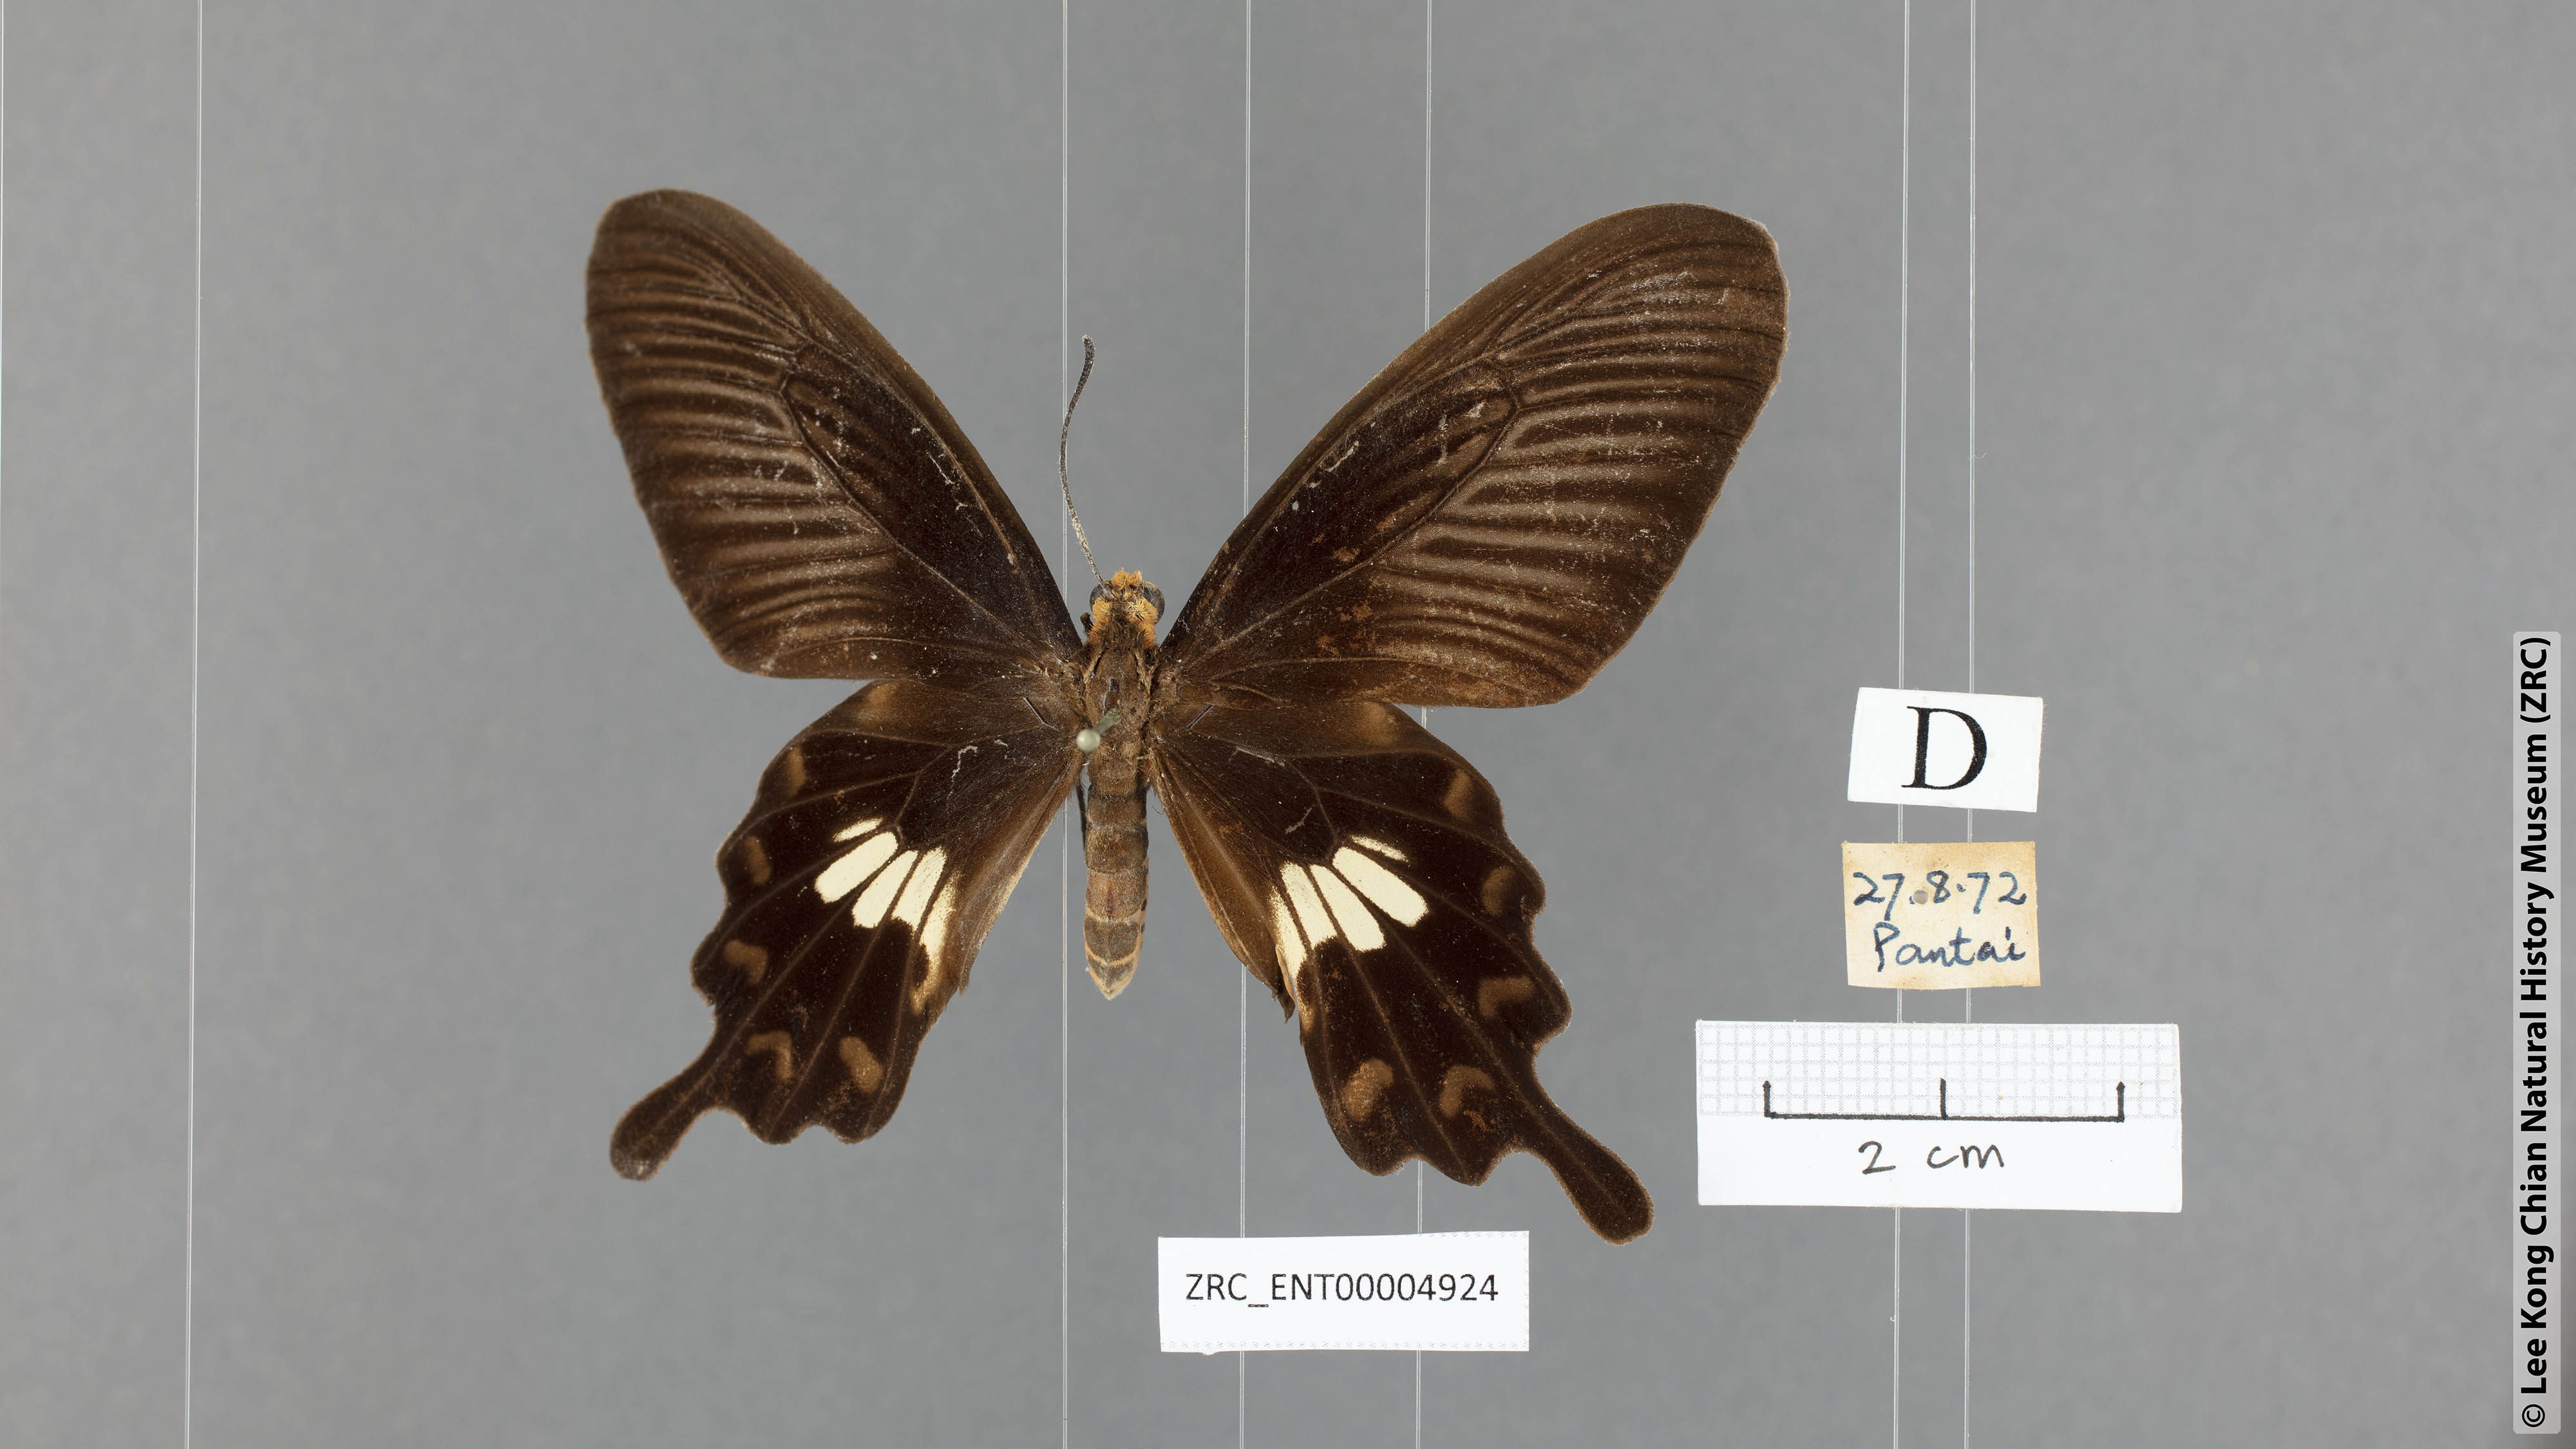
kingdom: Animalia
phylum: Arthropoda
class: Insecta
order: Lepidoptera
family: Papilionidae
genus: Pachliopta
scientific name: Pachliopta aristolochiae
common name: Common rose
